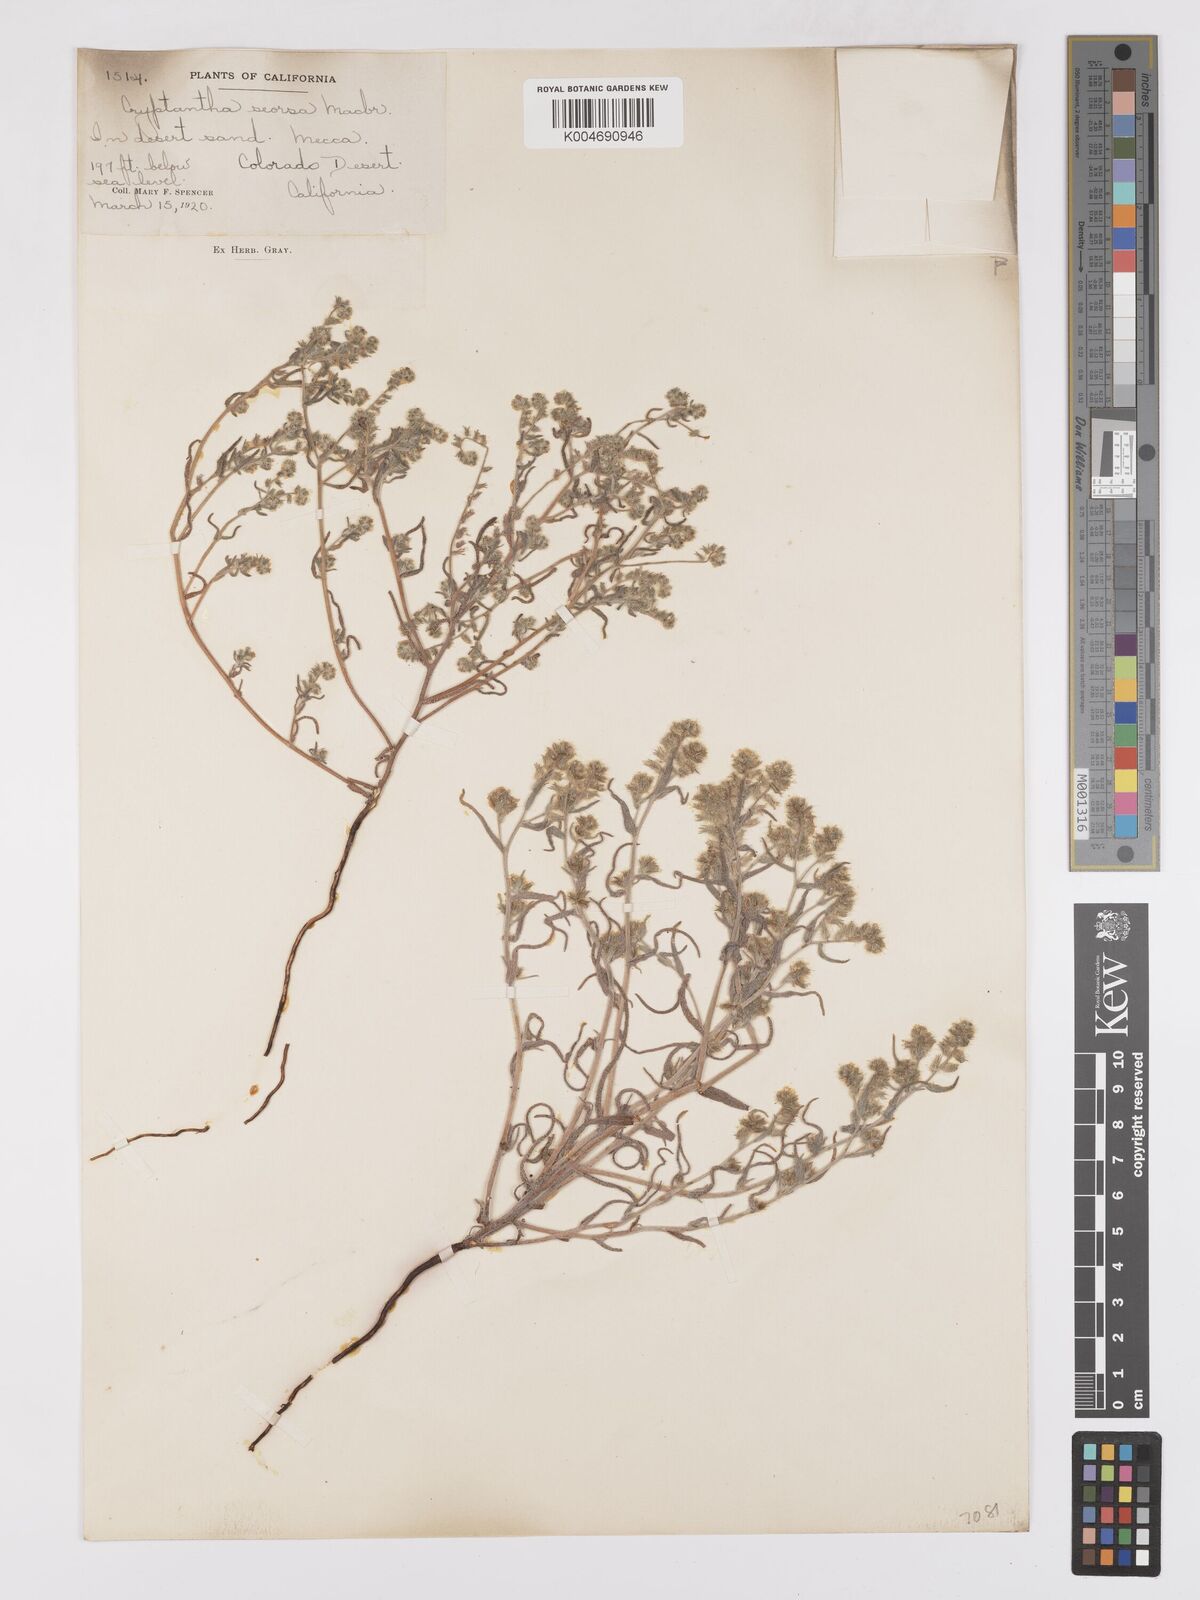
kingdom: Plantae
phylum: Tracheophyta
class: Magnoliopsida
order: Boraginales
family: Boraginaceae
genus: Johnstonella
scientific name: Johnstonella costata
